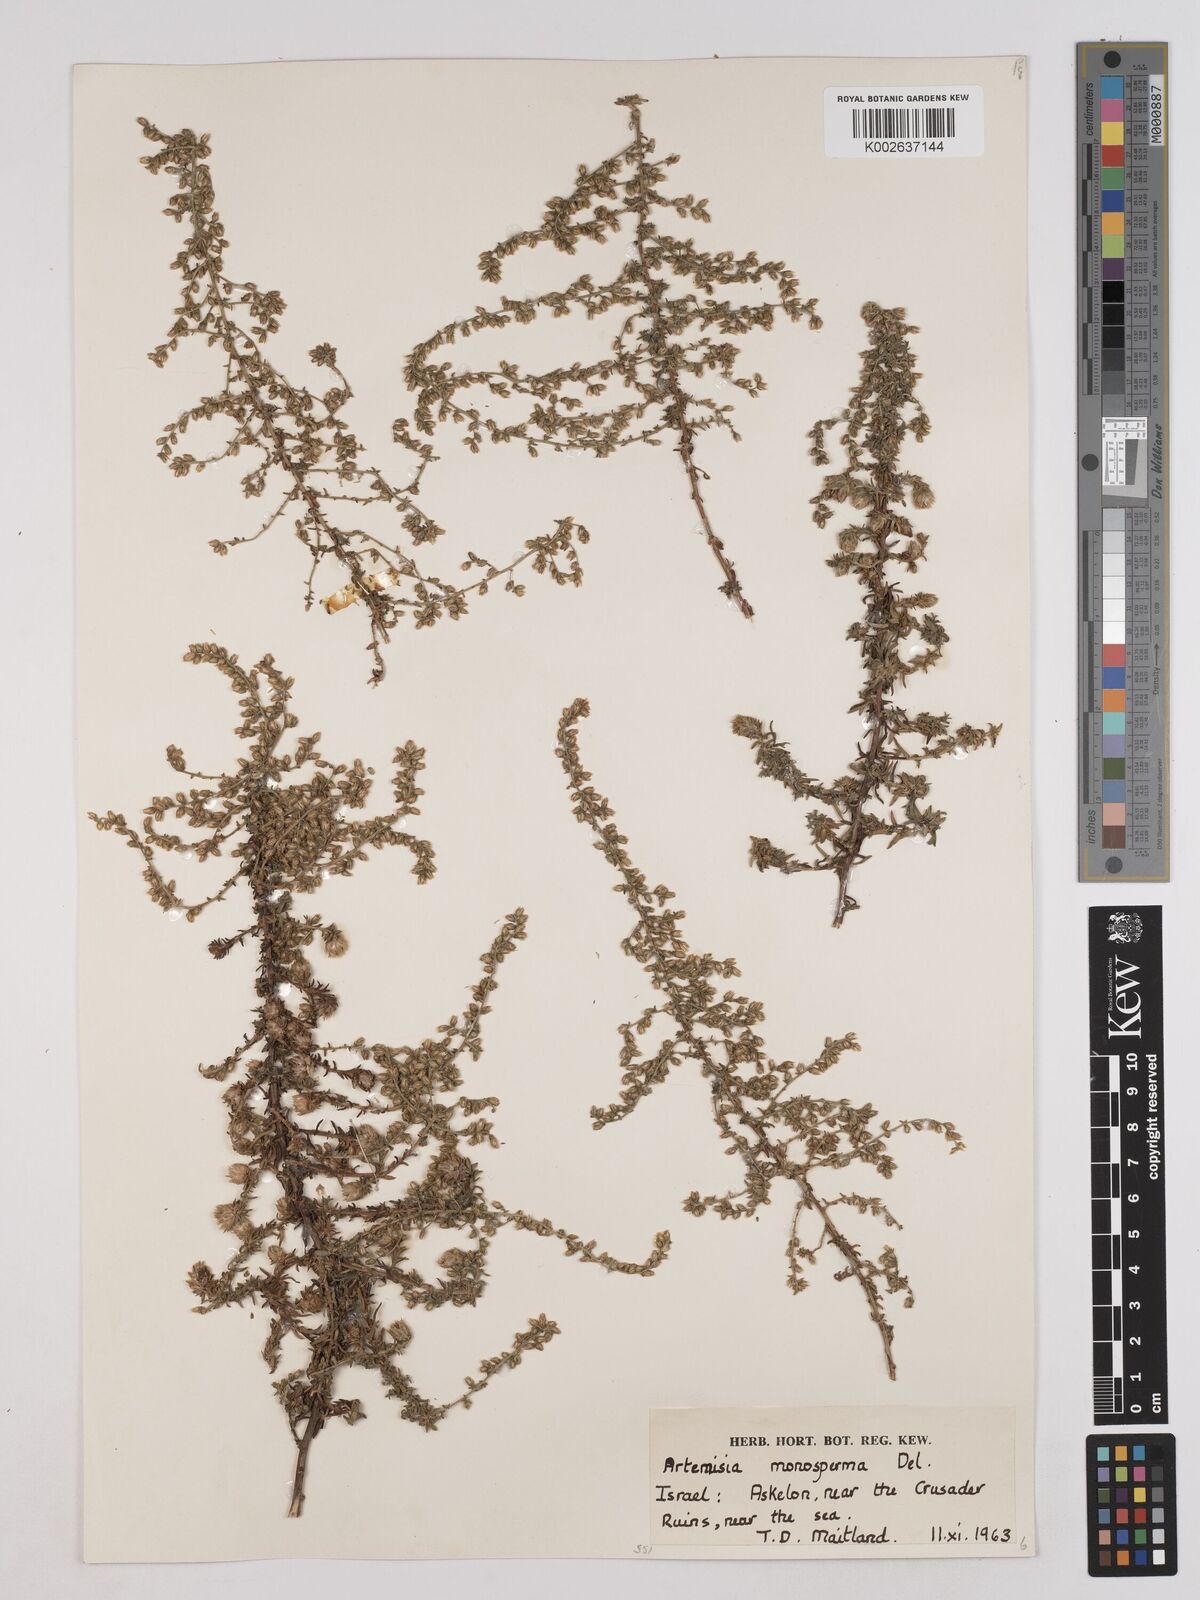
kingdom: Plantae
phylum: Tracheophyta
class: Magnoliopsida
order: Asterales
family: Asteraceae
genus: Artemisia
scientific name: Artemisia monosperma
